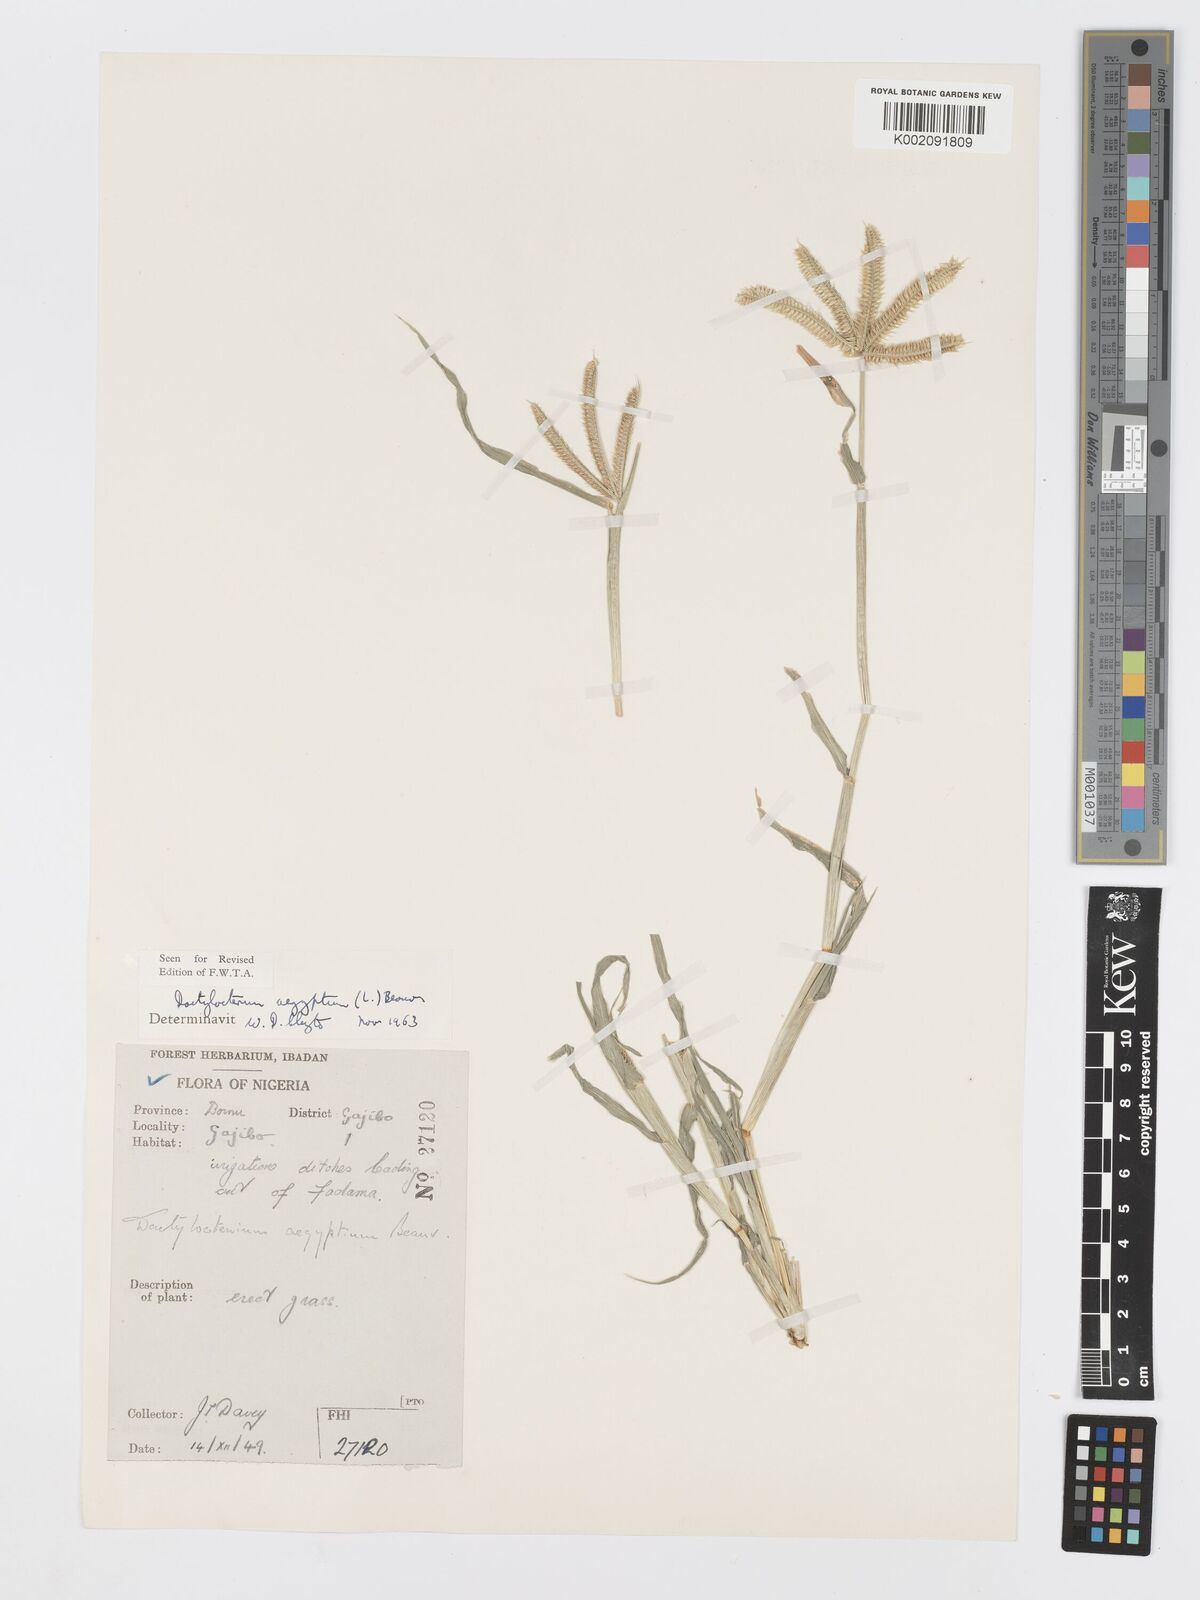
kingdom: Plantae
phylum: Tracheophyta
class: Liliopsida
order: Poales
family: Poaceae
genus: Dactyloctenium
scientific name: Dactyloctenium aegyptium
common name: Egyptian grass
